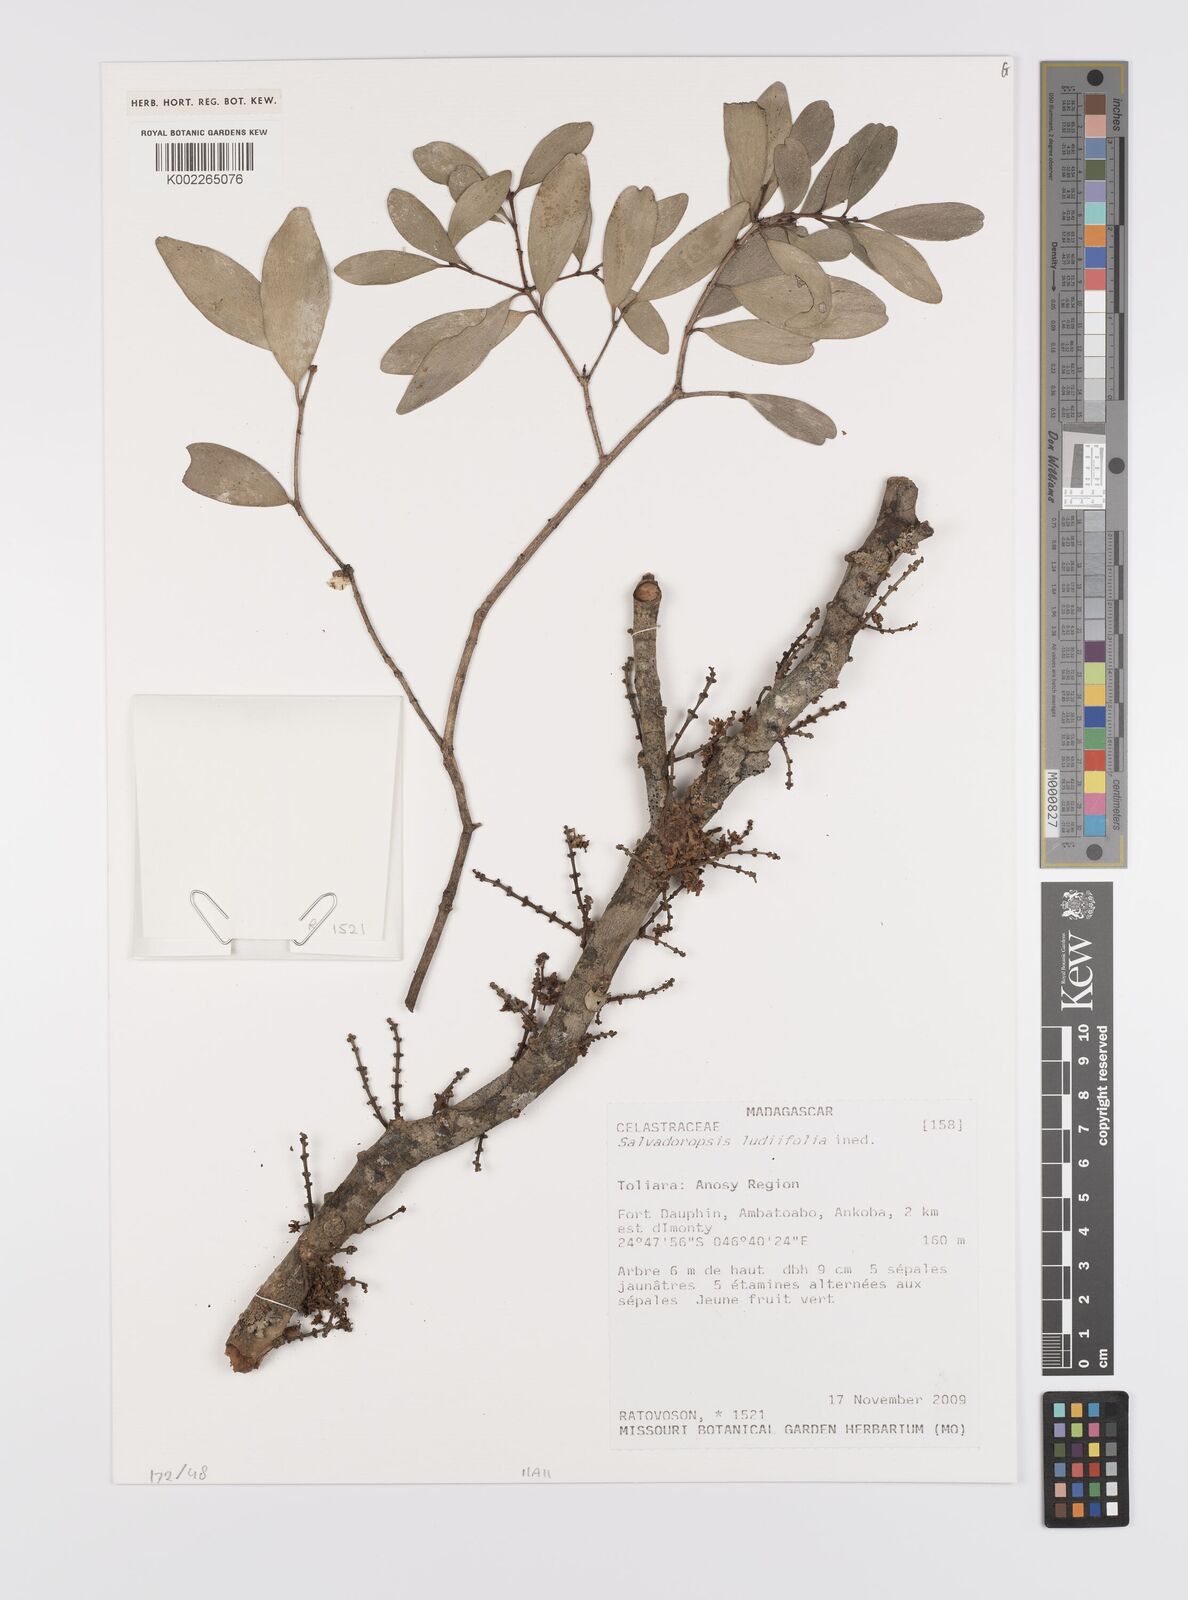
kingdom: Plantae
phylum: Tracheophyta
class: Magnoliopsida
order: Celastrales
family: Celastraceae
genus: Salvadoropsis
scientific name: Salvadoropsis
